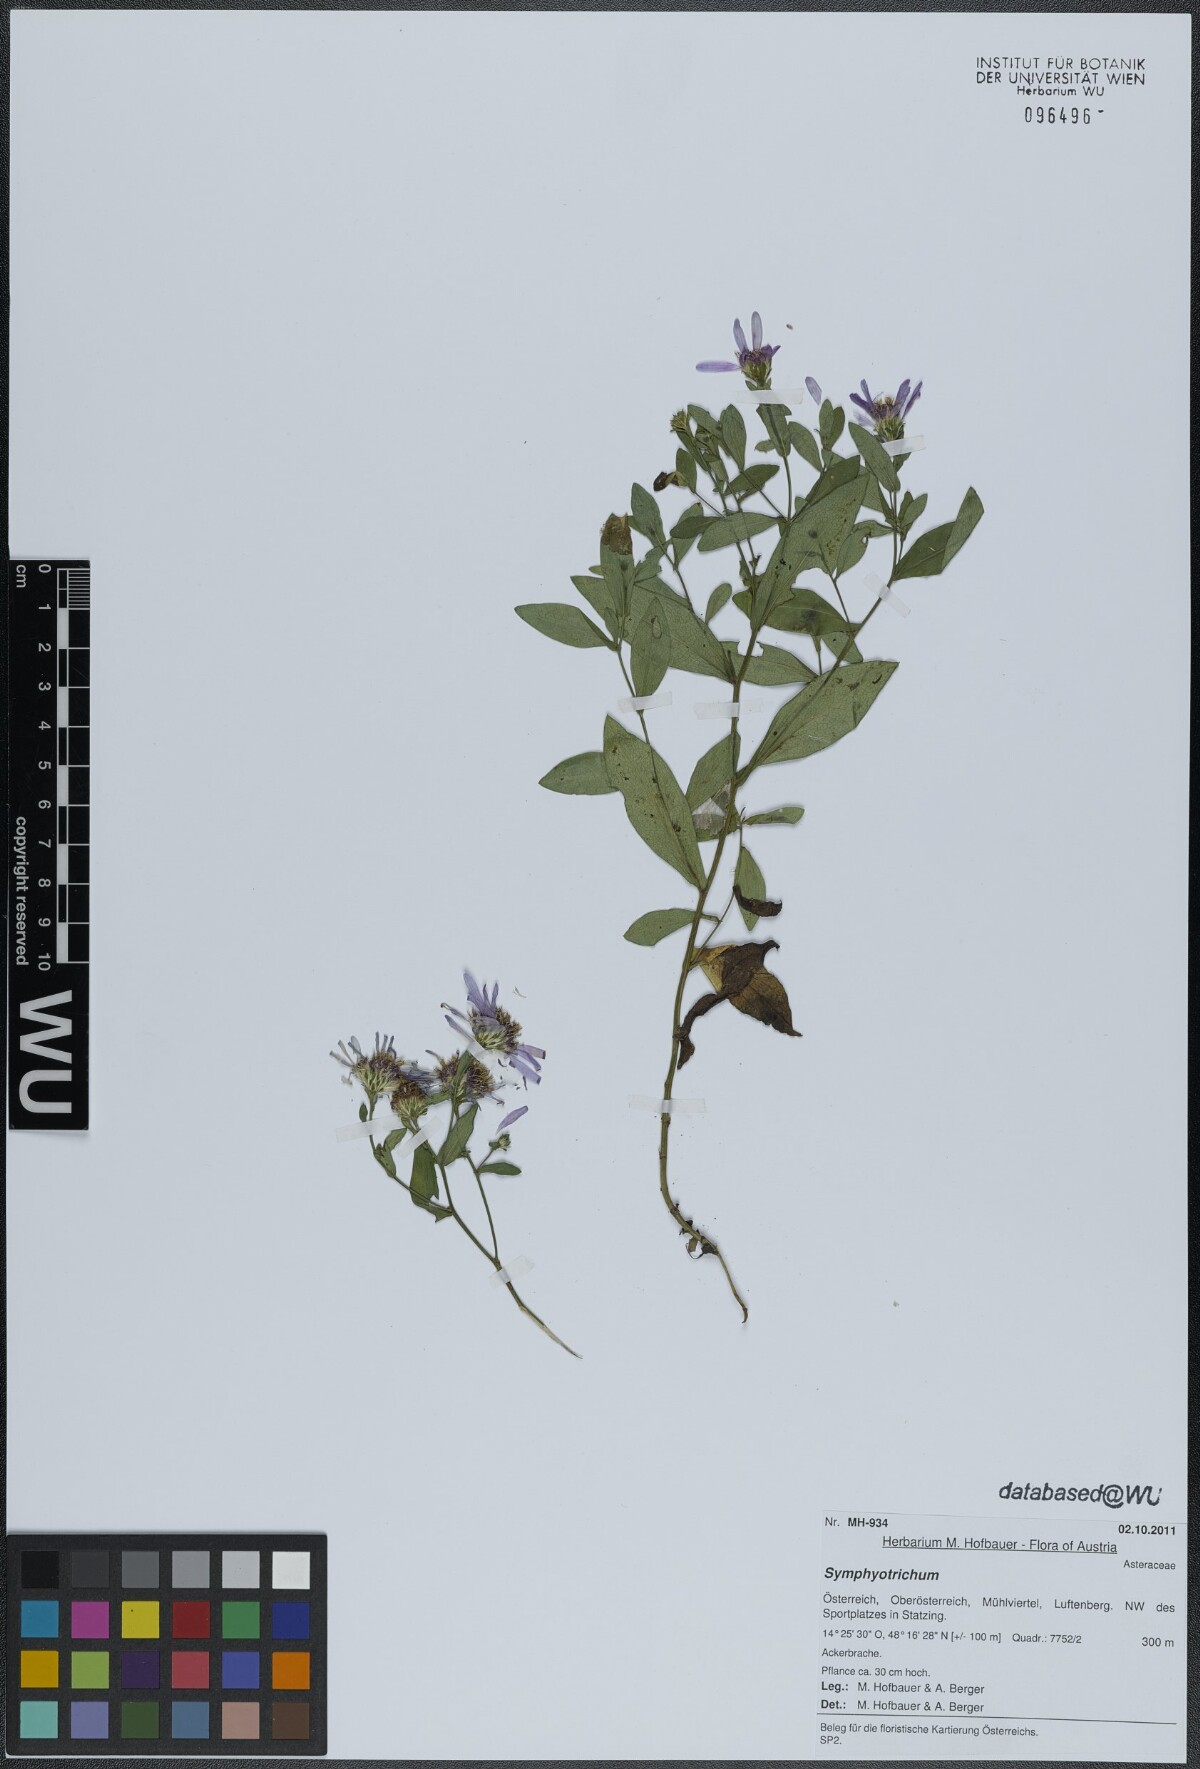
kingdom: Plantae
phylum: Tracheophyta
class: Magnoliopsida
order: Asterales
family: Asteraceae
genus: Symphyotrichum
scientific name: Symphyotrichum
